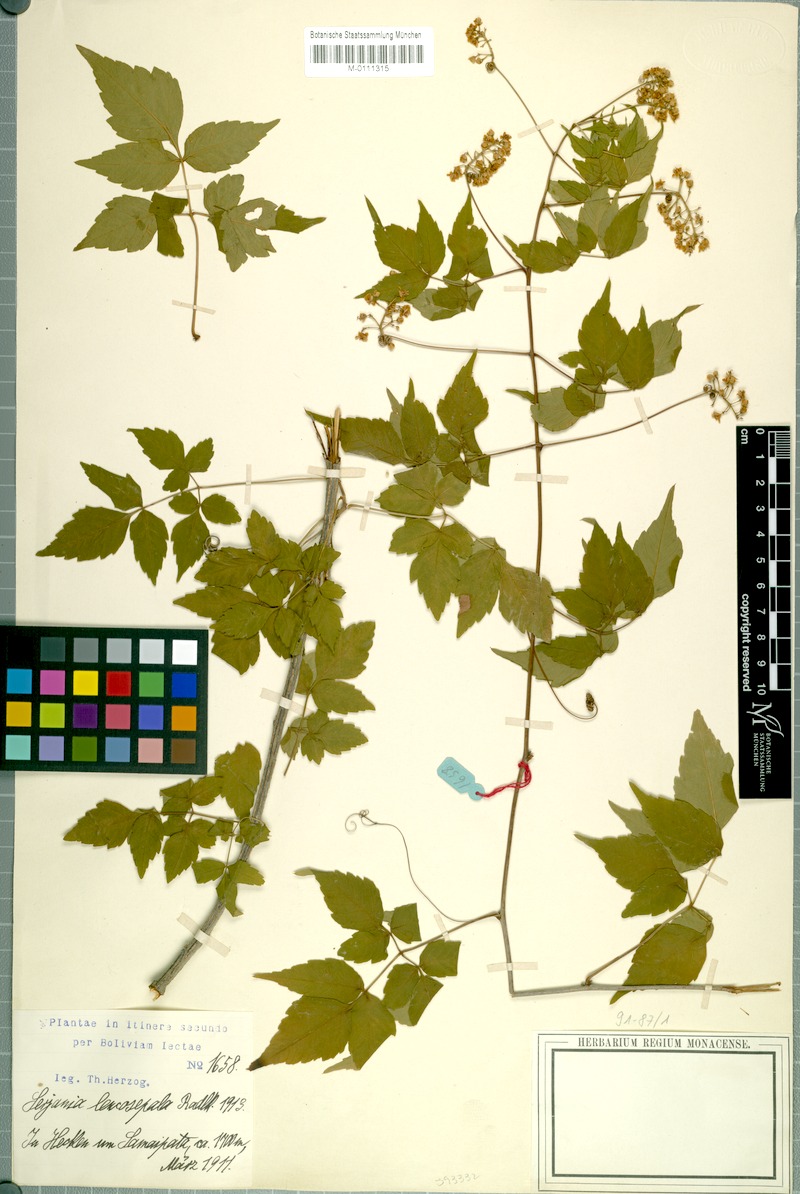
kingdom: Plantae
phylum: Tracheophyta
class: Magnoliopsida
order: Sapindales
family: Sapindaceae
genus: Serjania
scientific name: Serjania leucosepala
